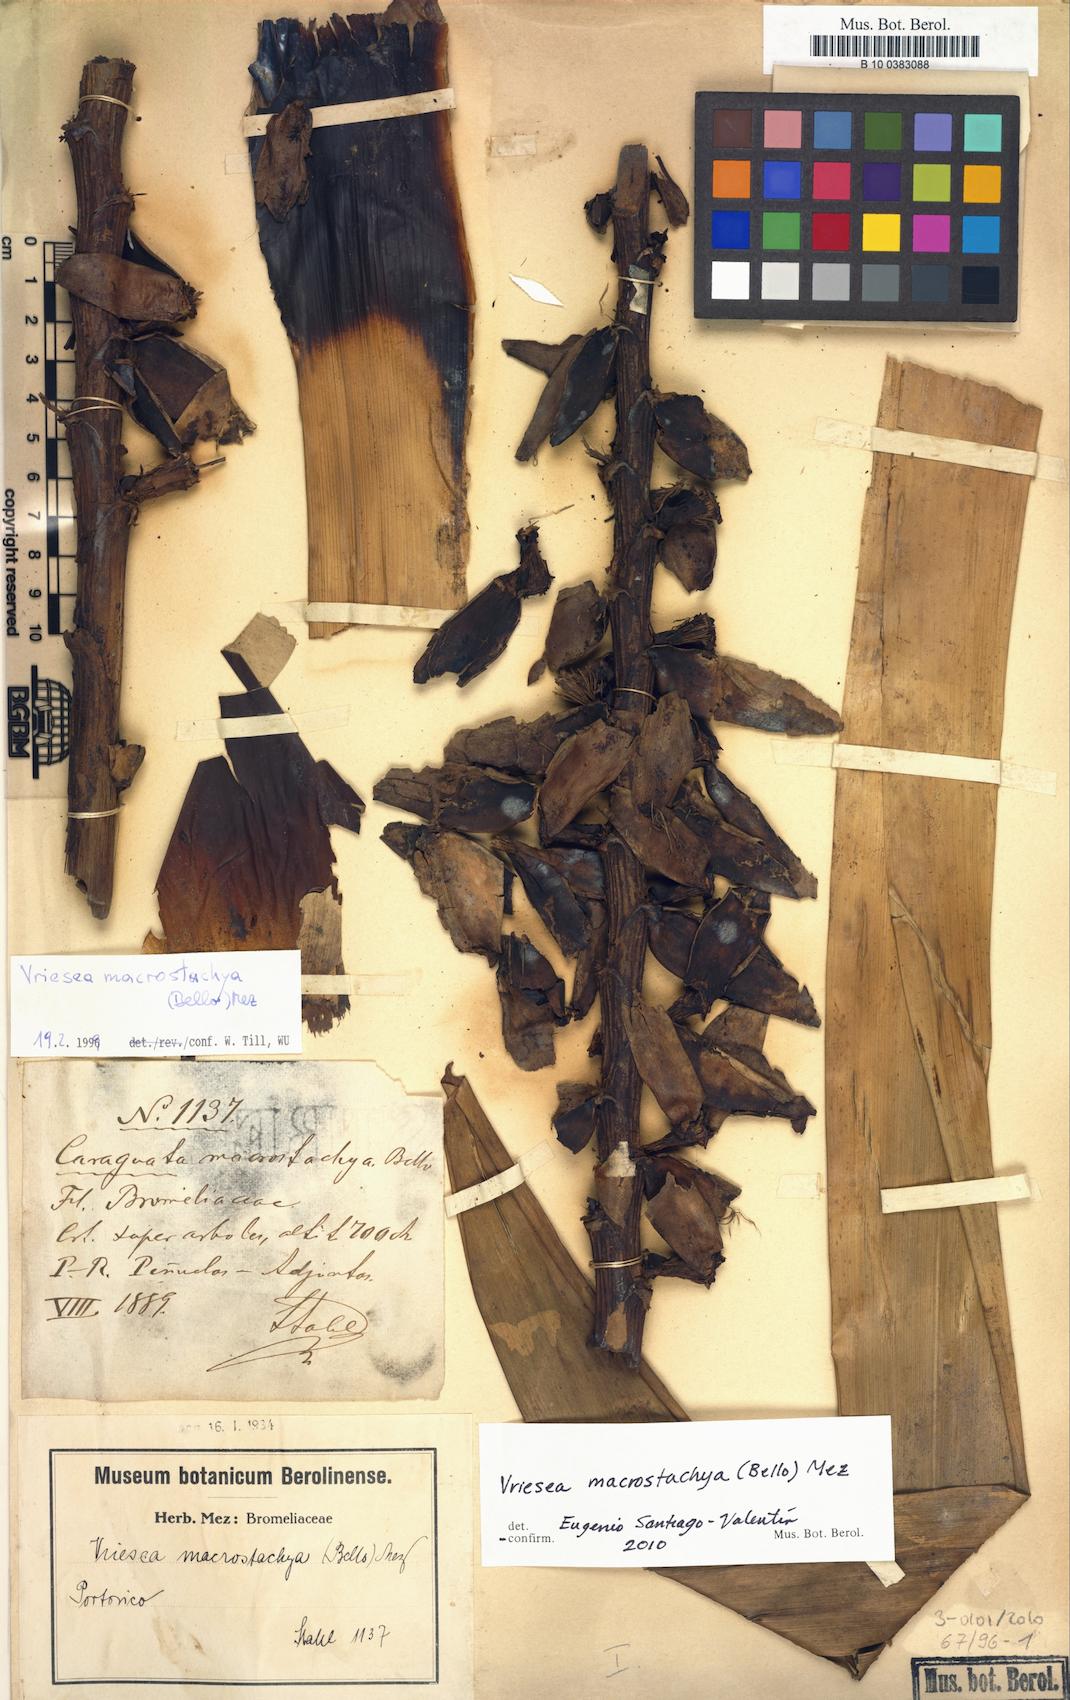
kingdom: Plantae
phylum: Tracheophyta
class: Liliopsida
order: Poales
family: Bromeliaceae
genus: Vriesea
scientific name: Vriesea macrostachya
